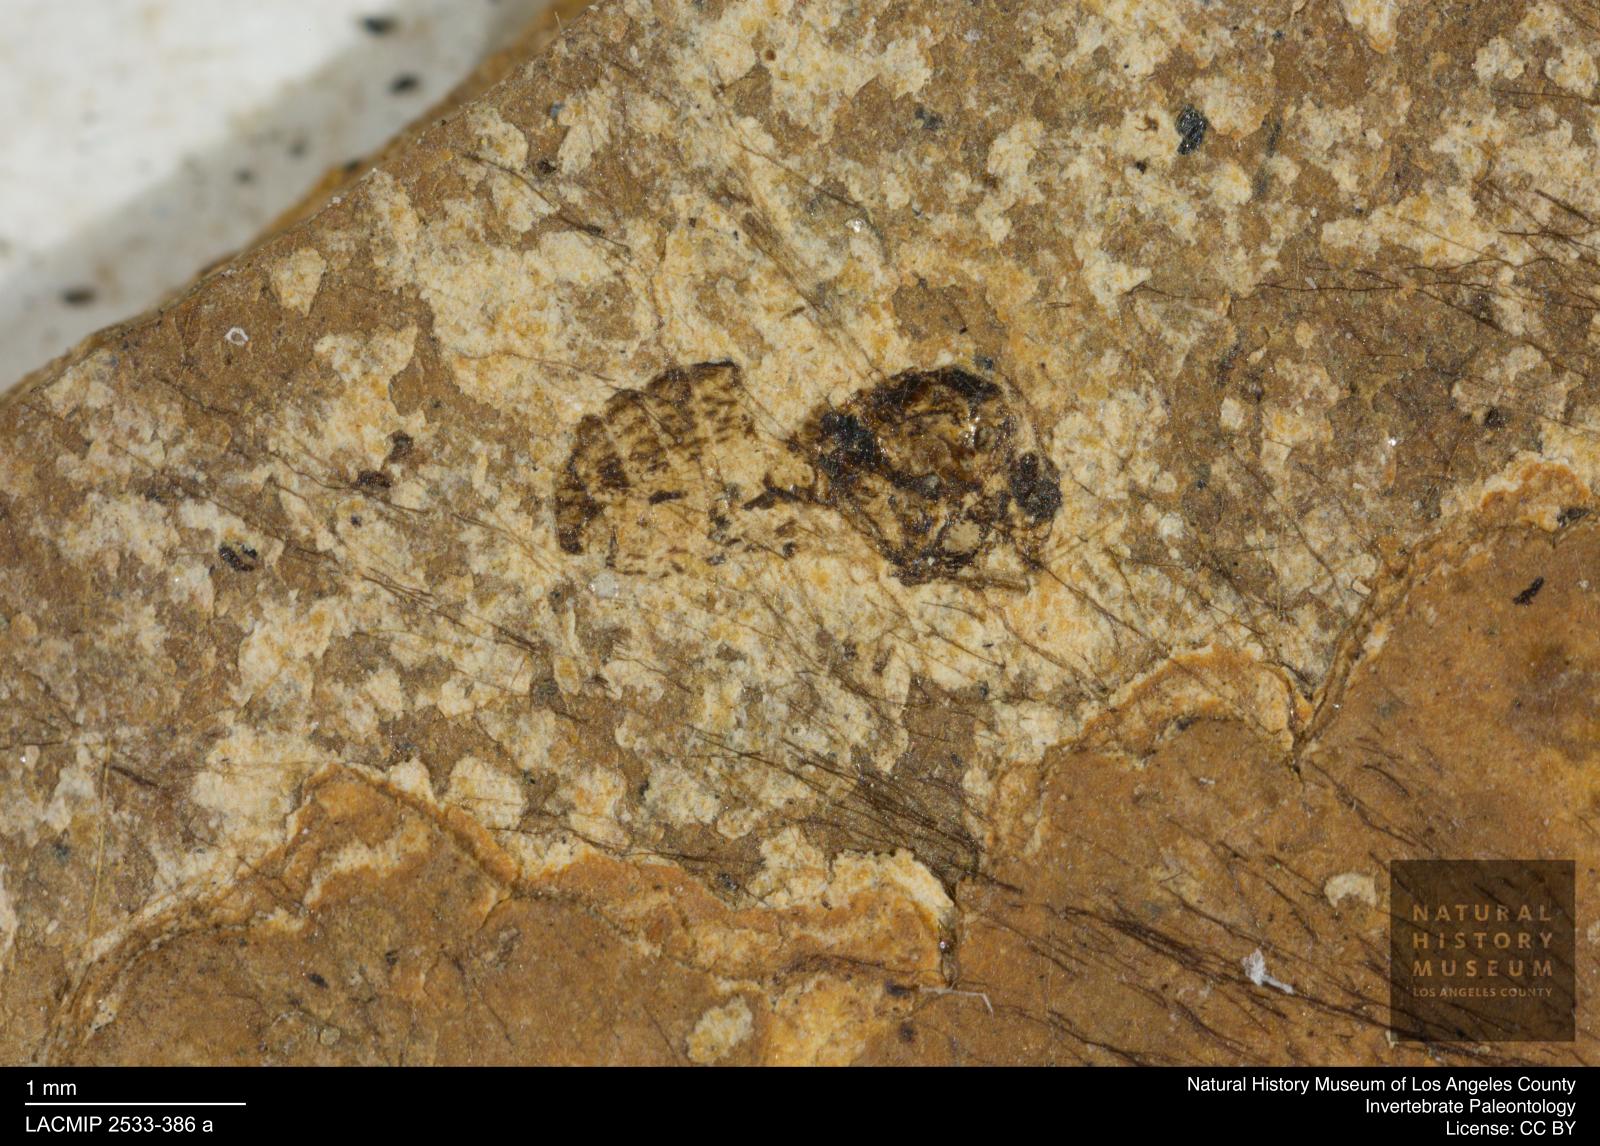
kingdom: Animalia
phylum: Arthropoda
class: Insecta
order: Diptera
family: Ceratopogonidae
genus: Culicoides
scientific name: Culicoides obscuratus
